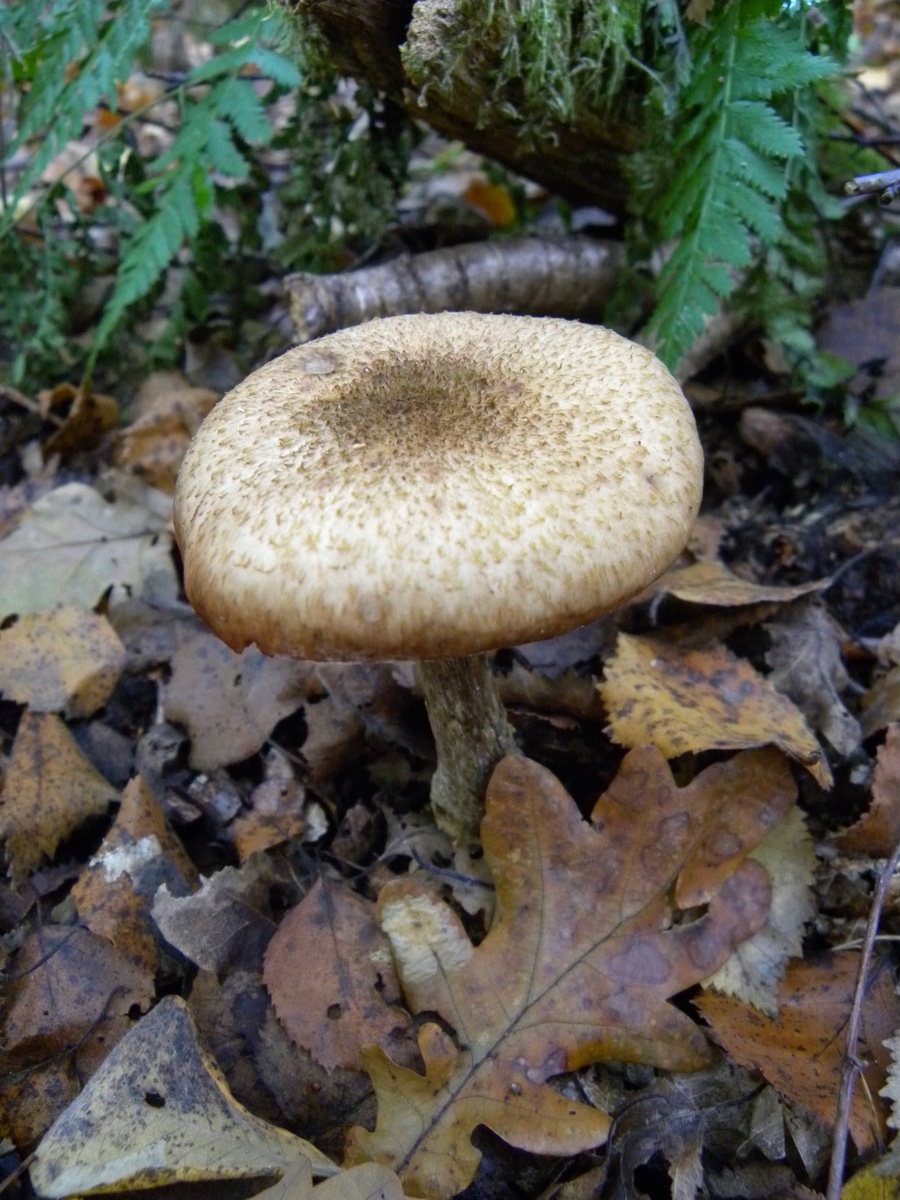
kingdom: Fungi
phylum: Basidiomycota
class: Agaricomycetes
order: Agaricales
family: Physalacriaceae
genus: Armillaria
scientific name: Armillaria
